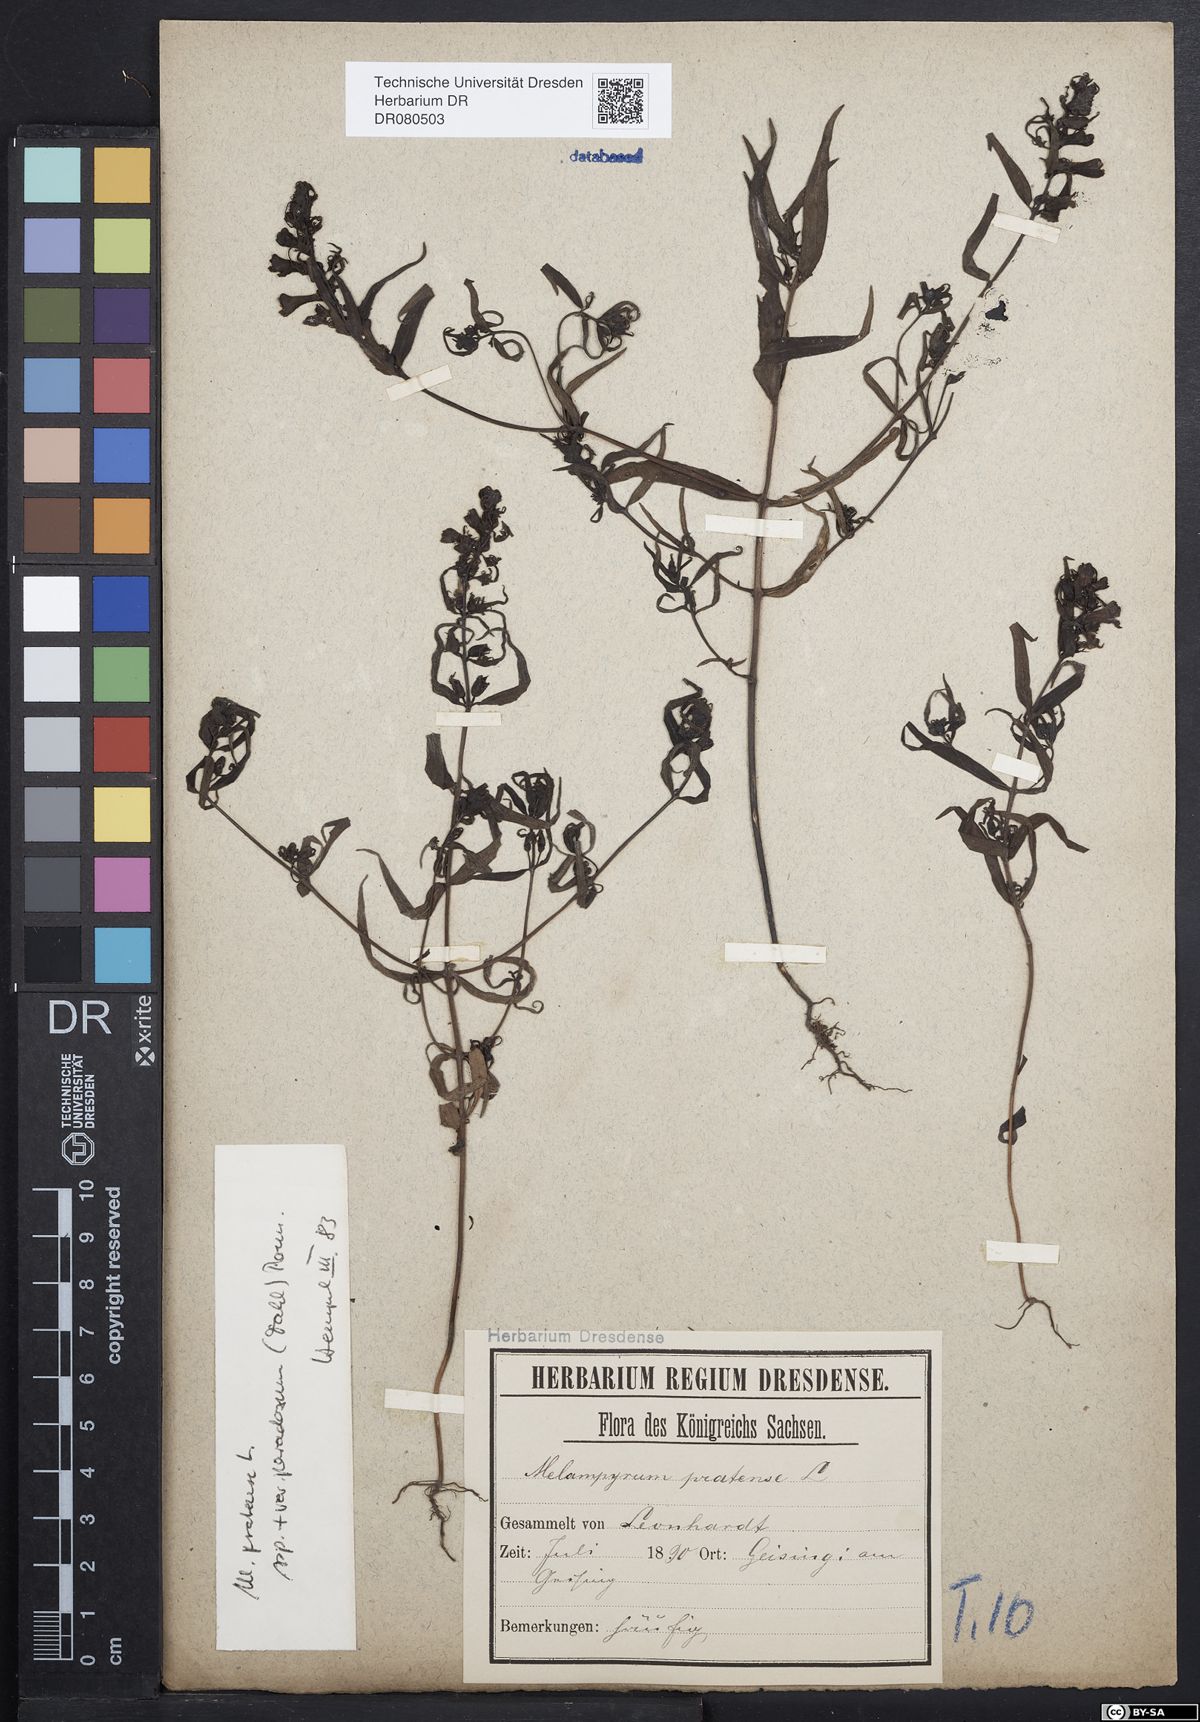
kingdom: Plantae
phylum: Tracheophyta
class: Magnoliopsida
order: Lamiales
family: Orobanchaceae
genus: Melampyrum
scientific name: Melampyrum pratense
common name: Common cow-wheat
